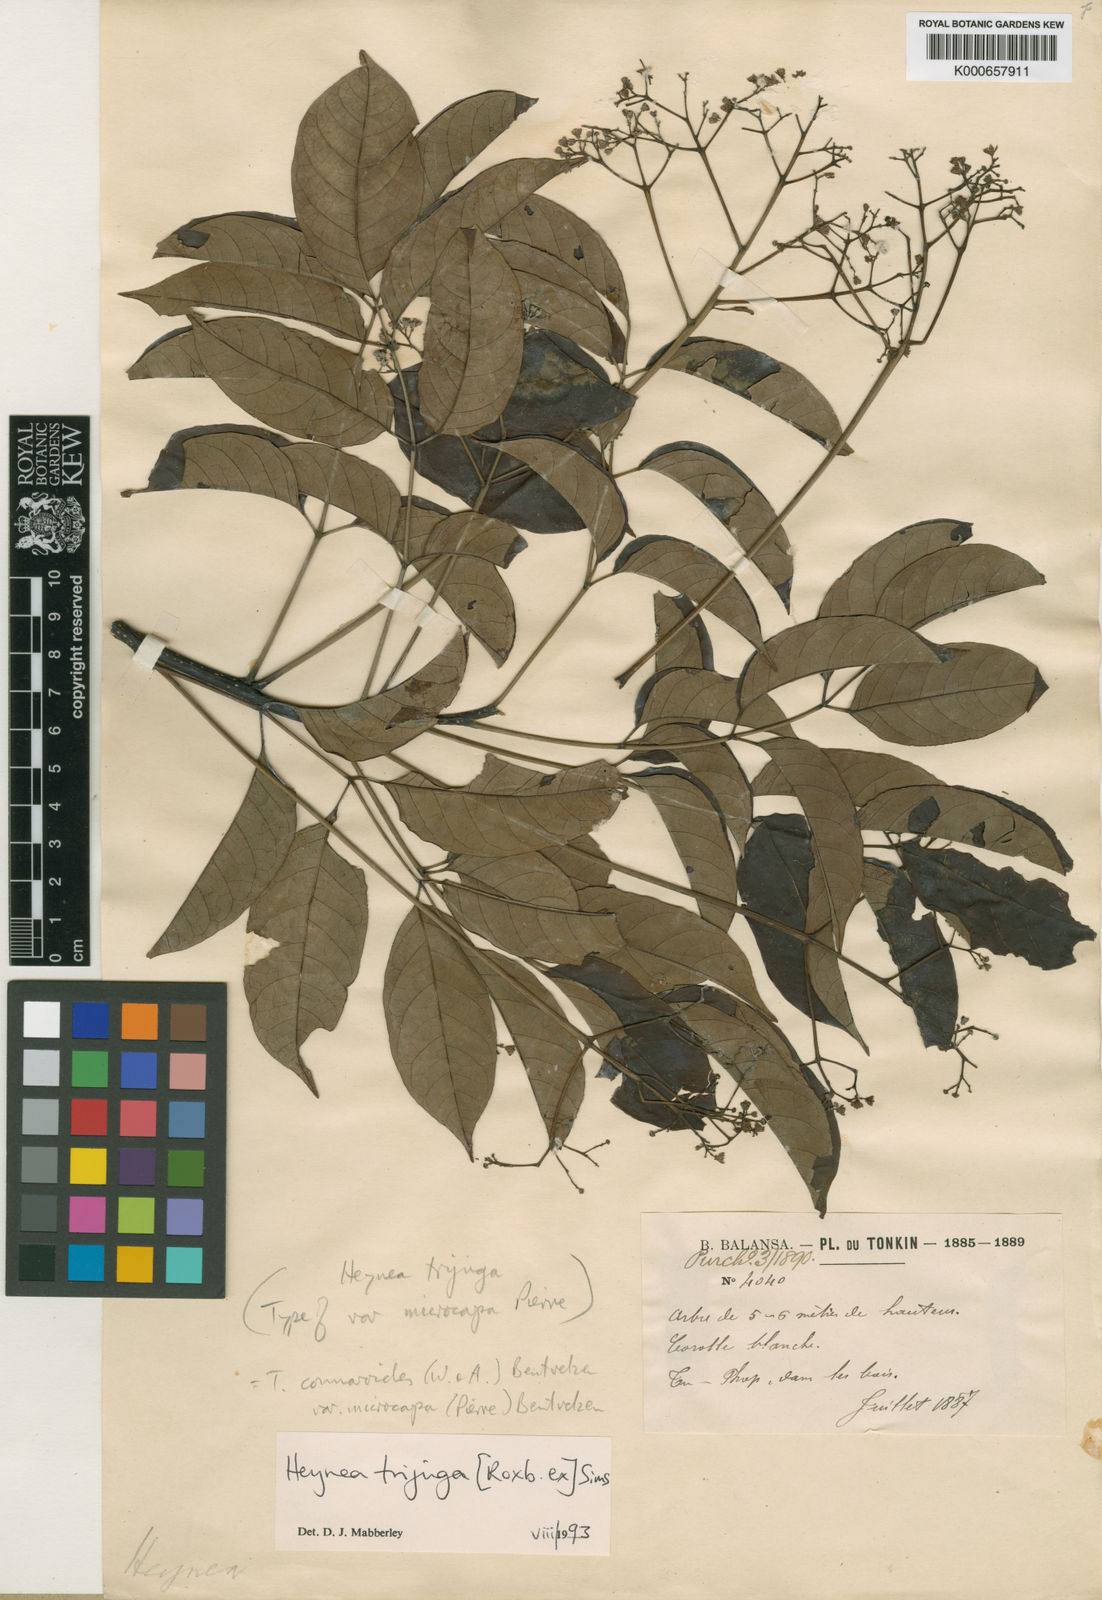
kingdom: Plantae
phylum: Tracheophyta
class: Magnoliopsida
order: Sapindales
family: Meliaceae
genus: Heynea
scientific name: Heynea trijuga
